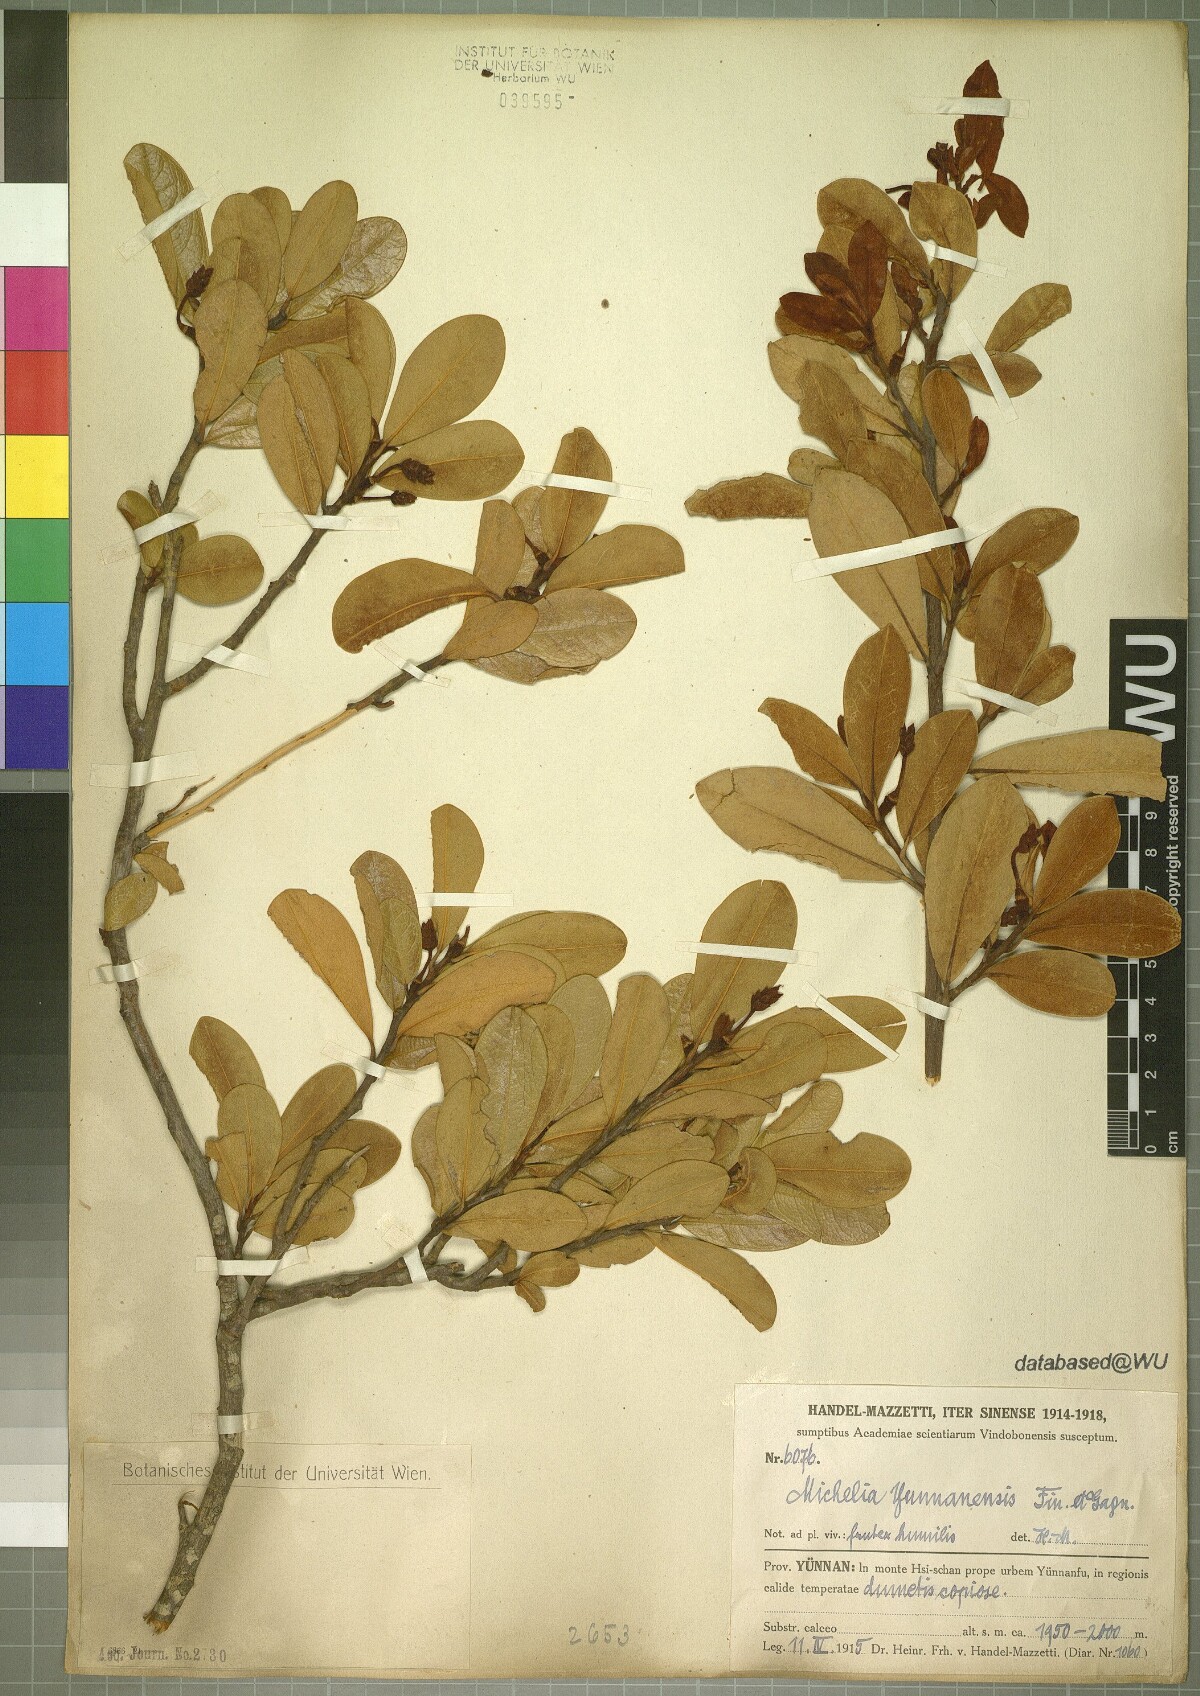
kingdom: Plantae
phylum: Tracheophyta
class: Magnoliopsida
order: Magnoliales
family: Magnoliaceae
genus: Magnolia
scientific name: Magnolia laevifolia
